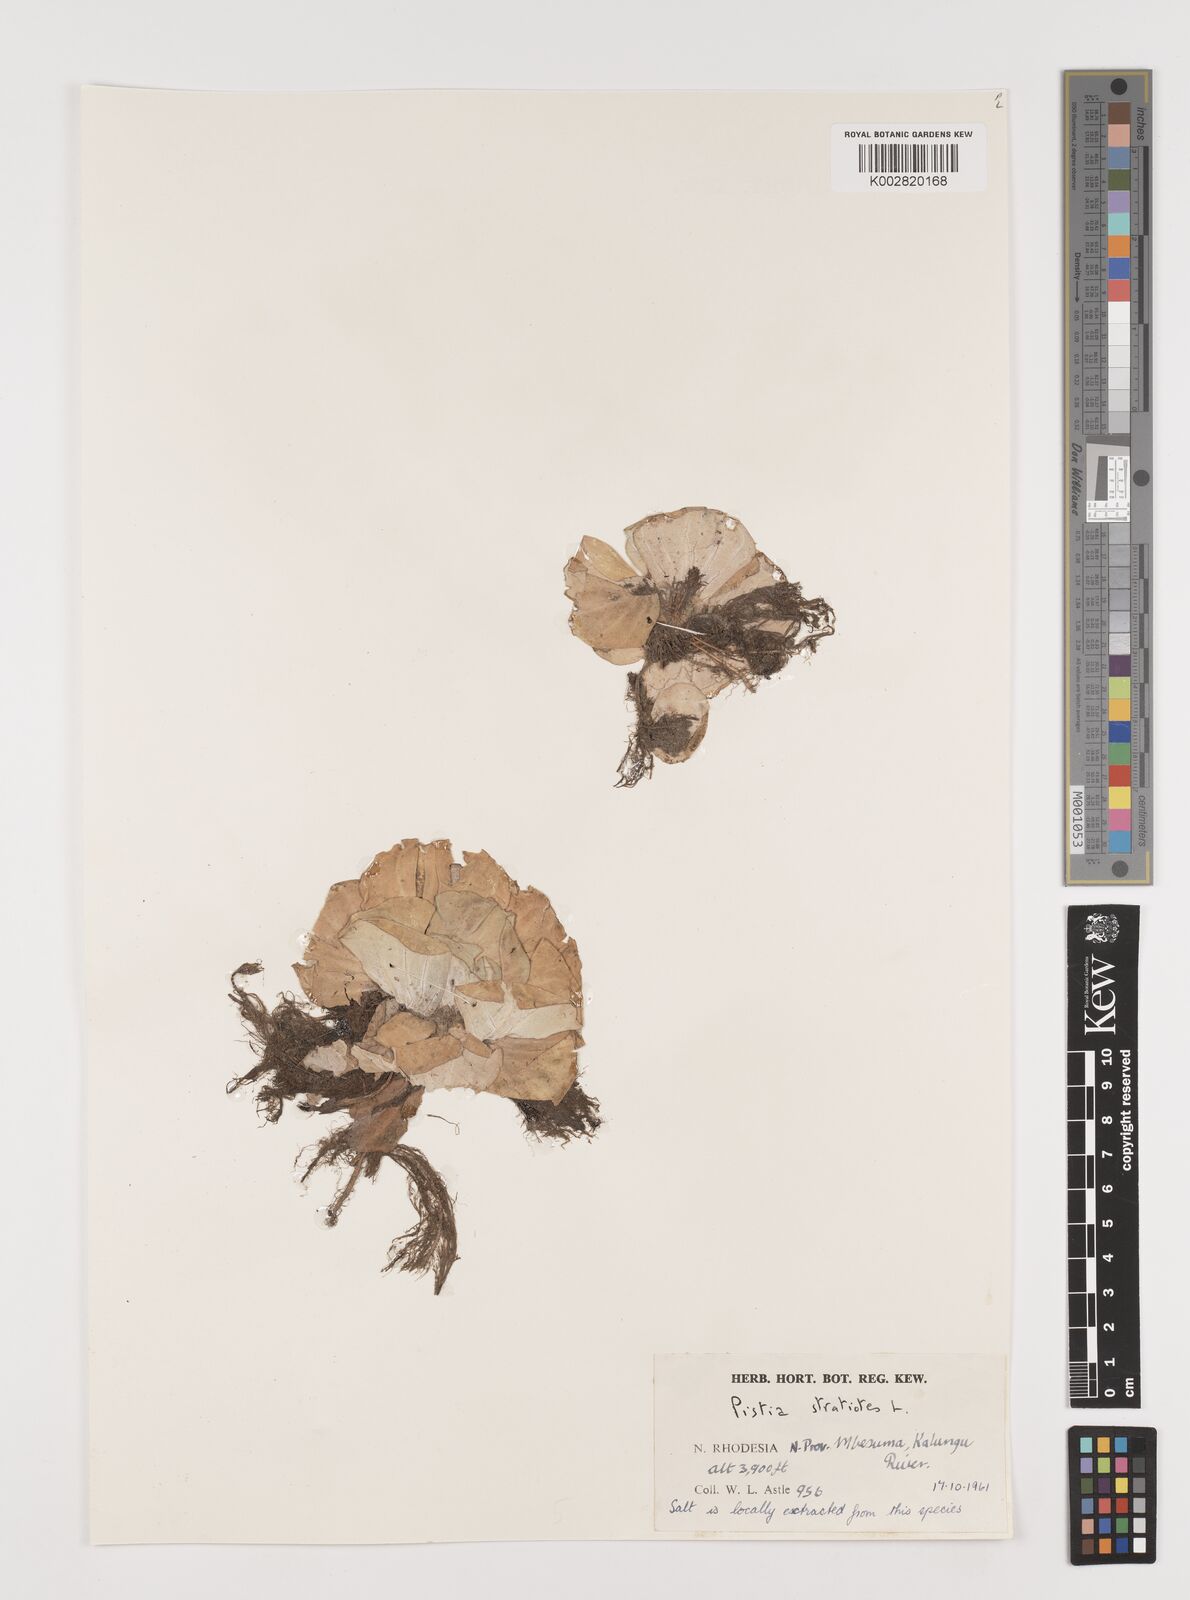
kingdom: Plantae
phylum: Tracheophyta
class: Liliopsida
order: Alismatales
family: Araceae
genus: Pistia
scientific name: Pistia stratiotes
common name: Water lettuce
